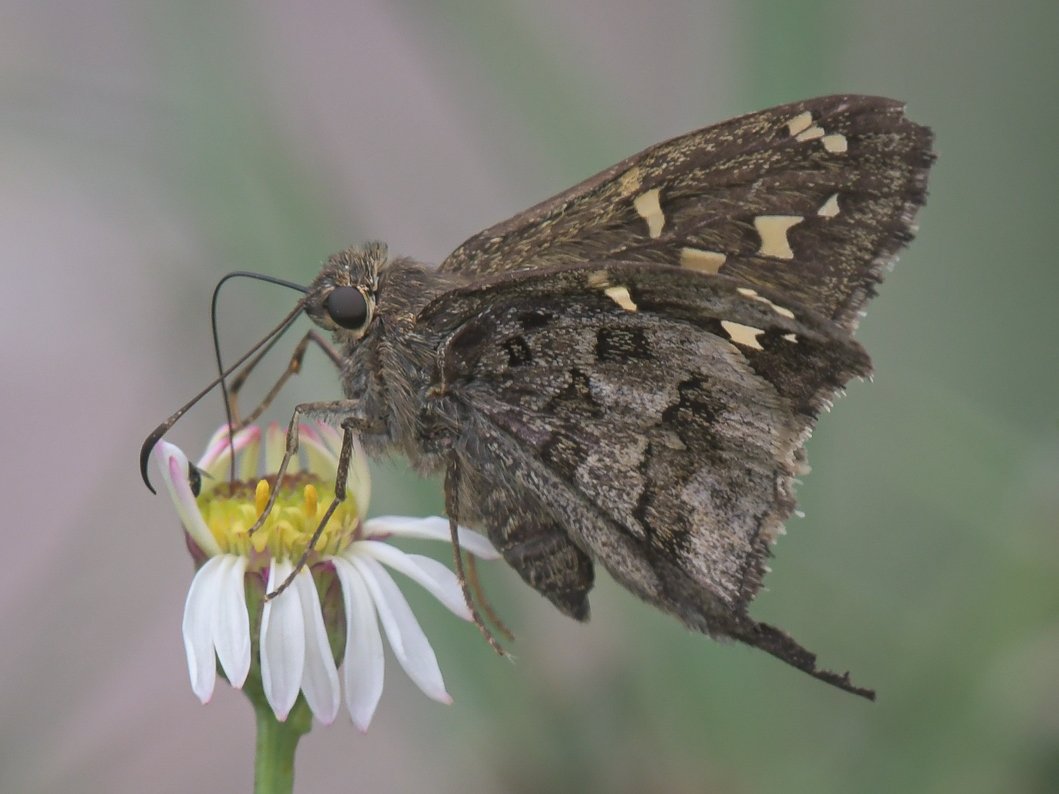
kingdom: Animalia
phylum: Arthropoda
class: Insecta
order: Lepidoptera
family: Hesperiidae
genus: Urbanus
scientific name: Urbanus dorantes
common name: Dorantes Longtail
